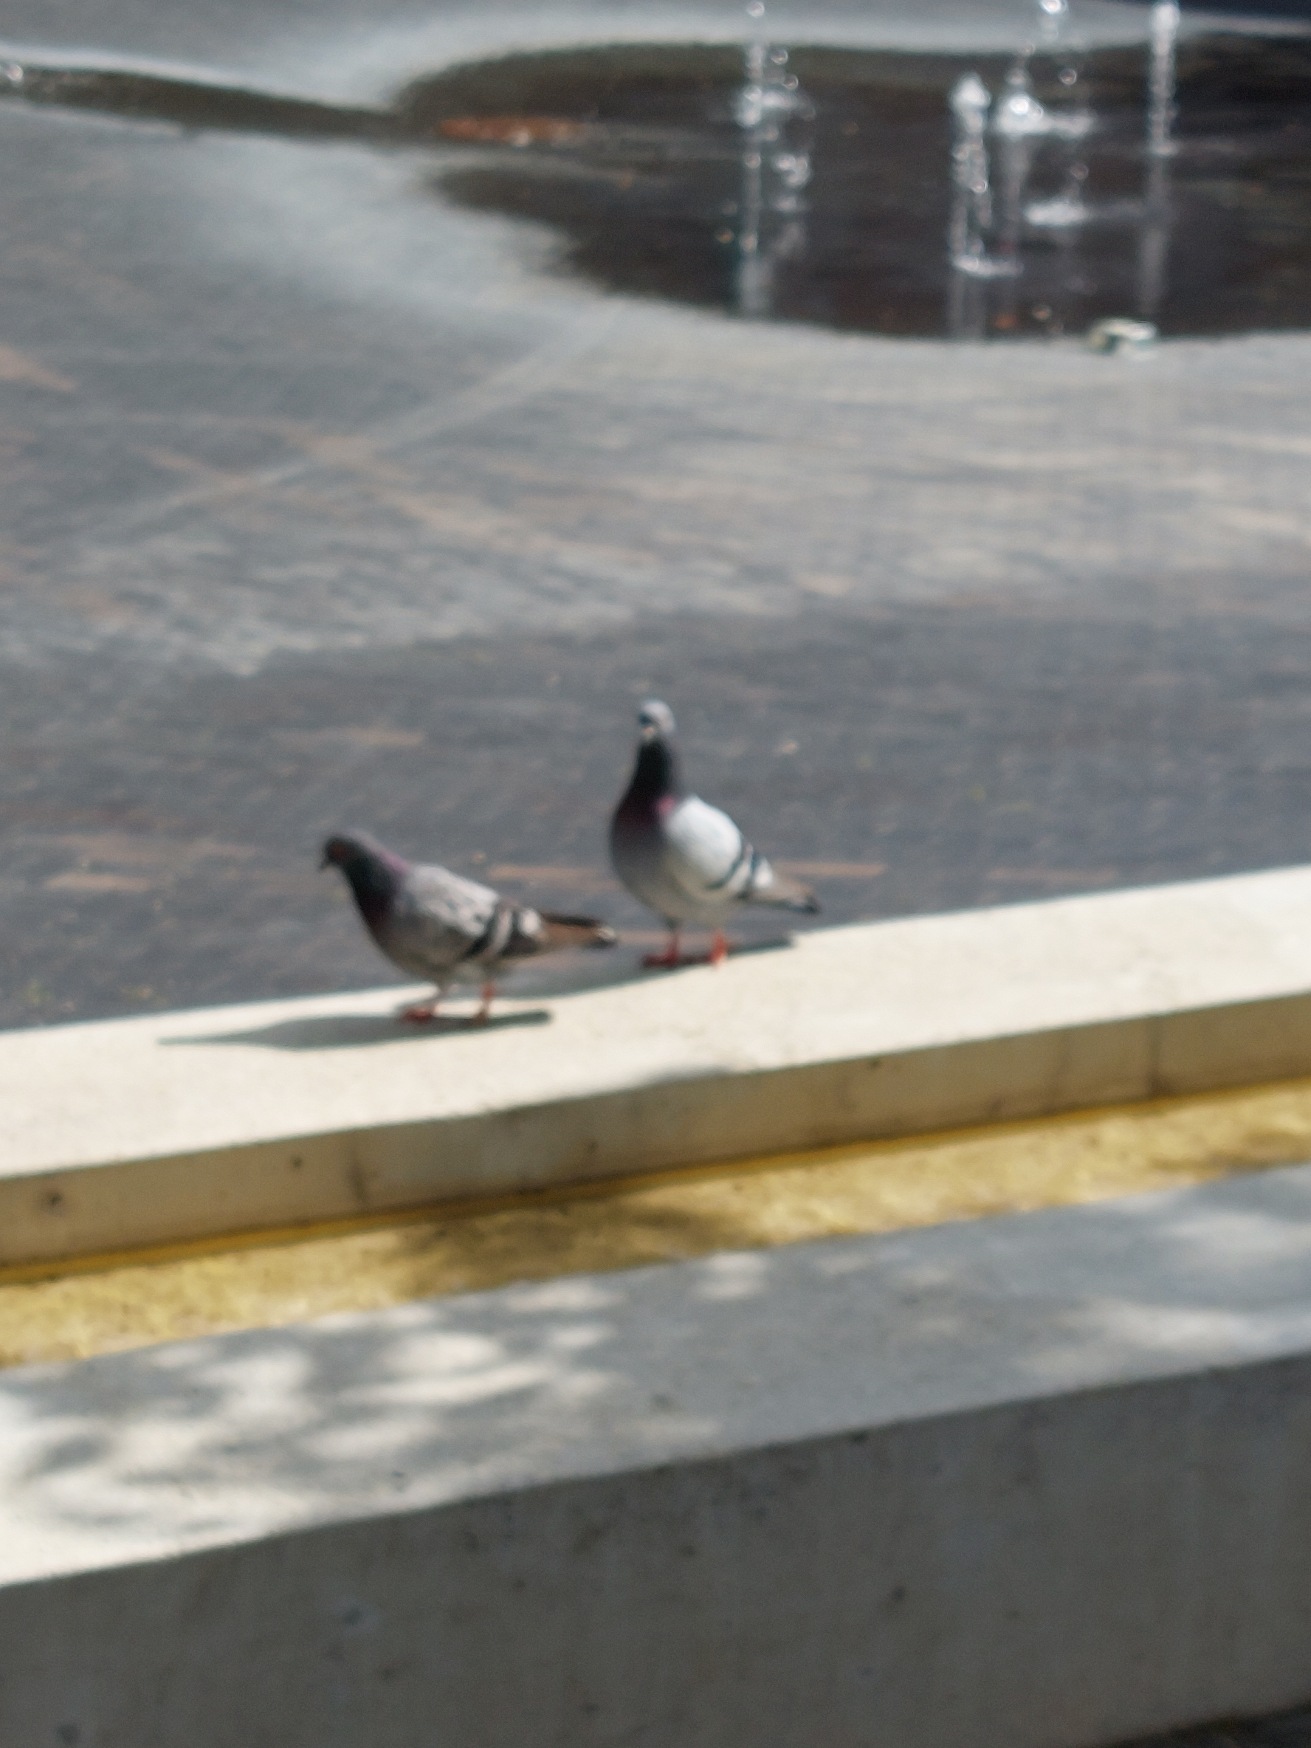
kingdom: Animalia
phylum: Chordata
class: Aves
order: Columbiformes
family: Columbidae
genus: Columba
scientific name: Columba livia
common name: Klippedue
